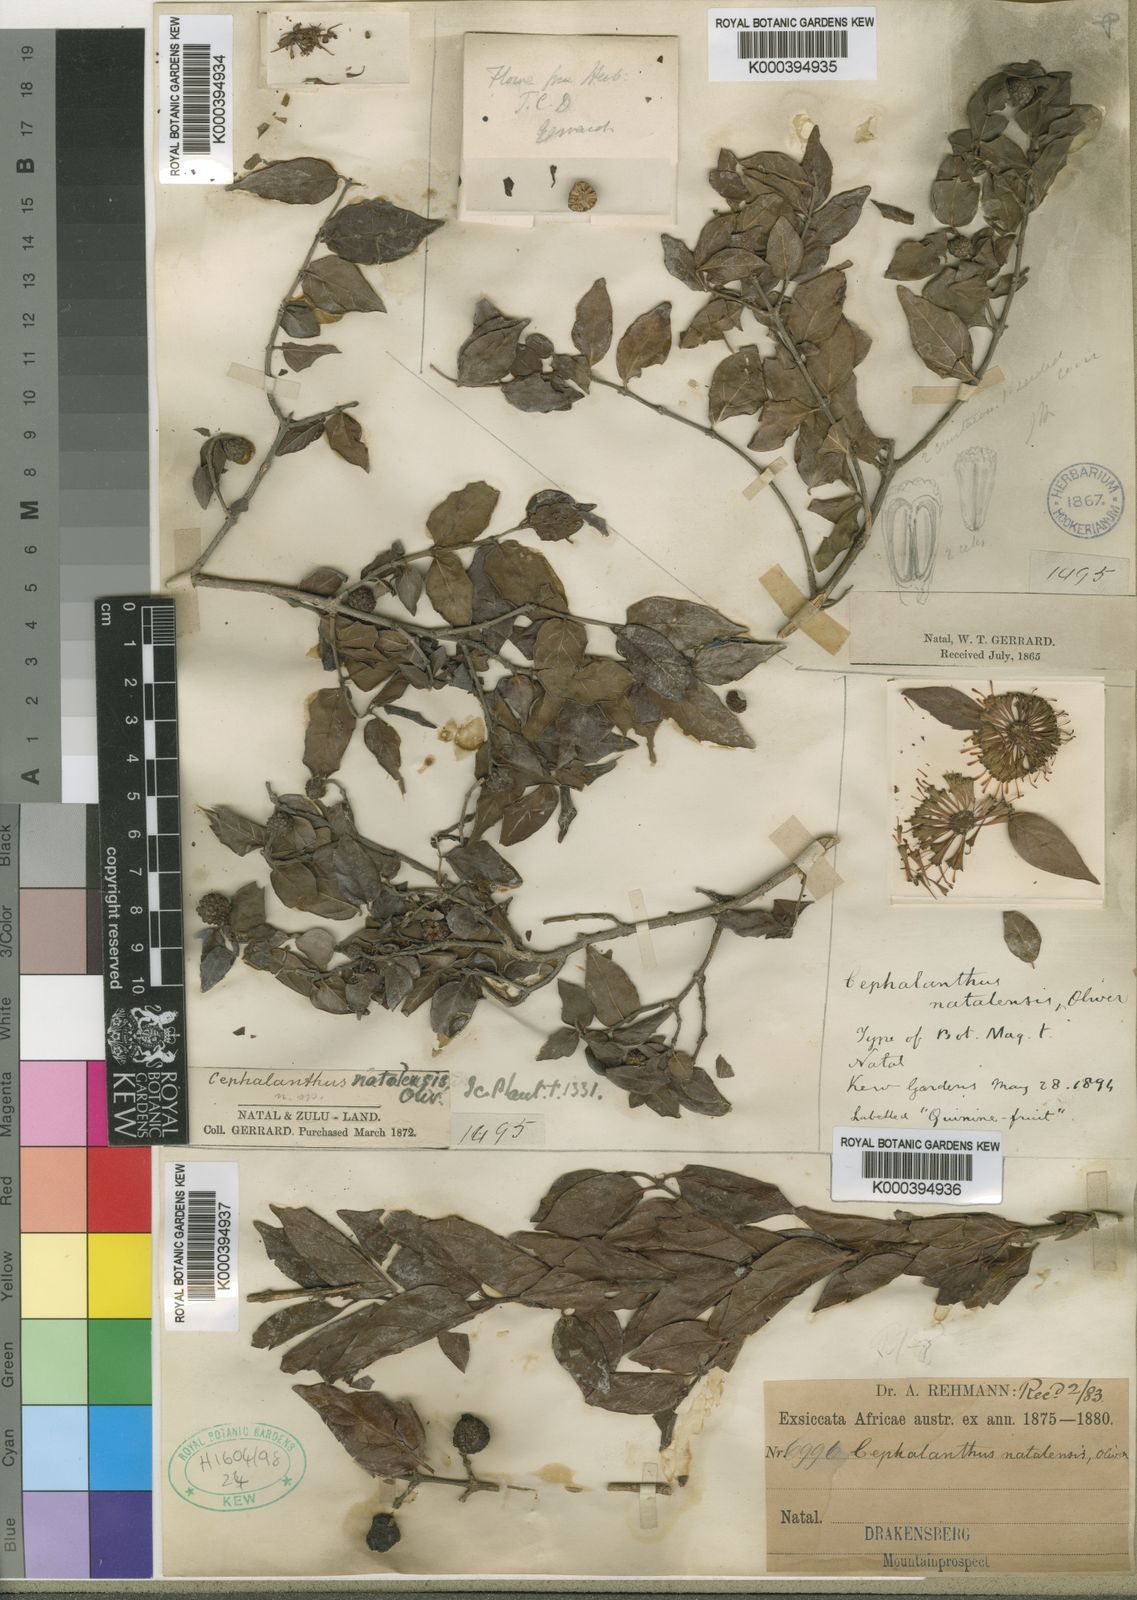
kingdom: Plantae
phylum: Tracheophyta
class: Magnoliopsida
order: Gentianales
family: Rubiaceae
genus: Cephalanthus
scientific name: Cephalanthus natalensis
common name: Strawberry bush
